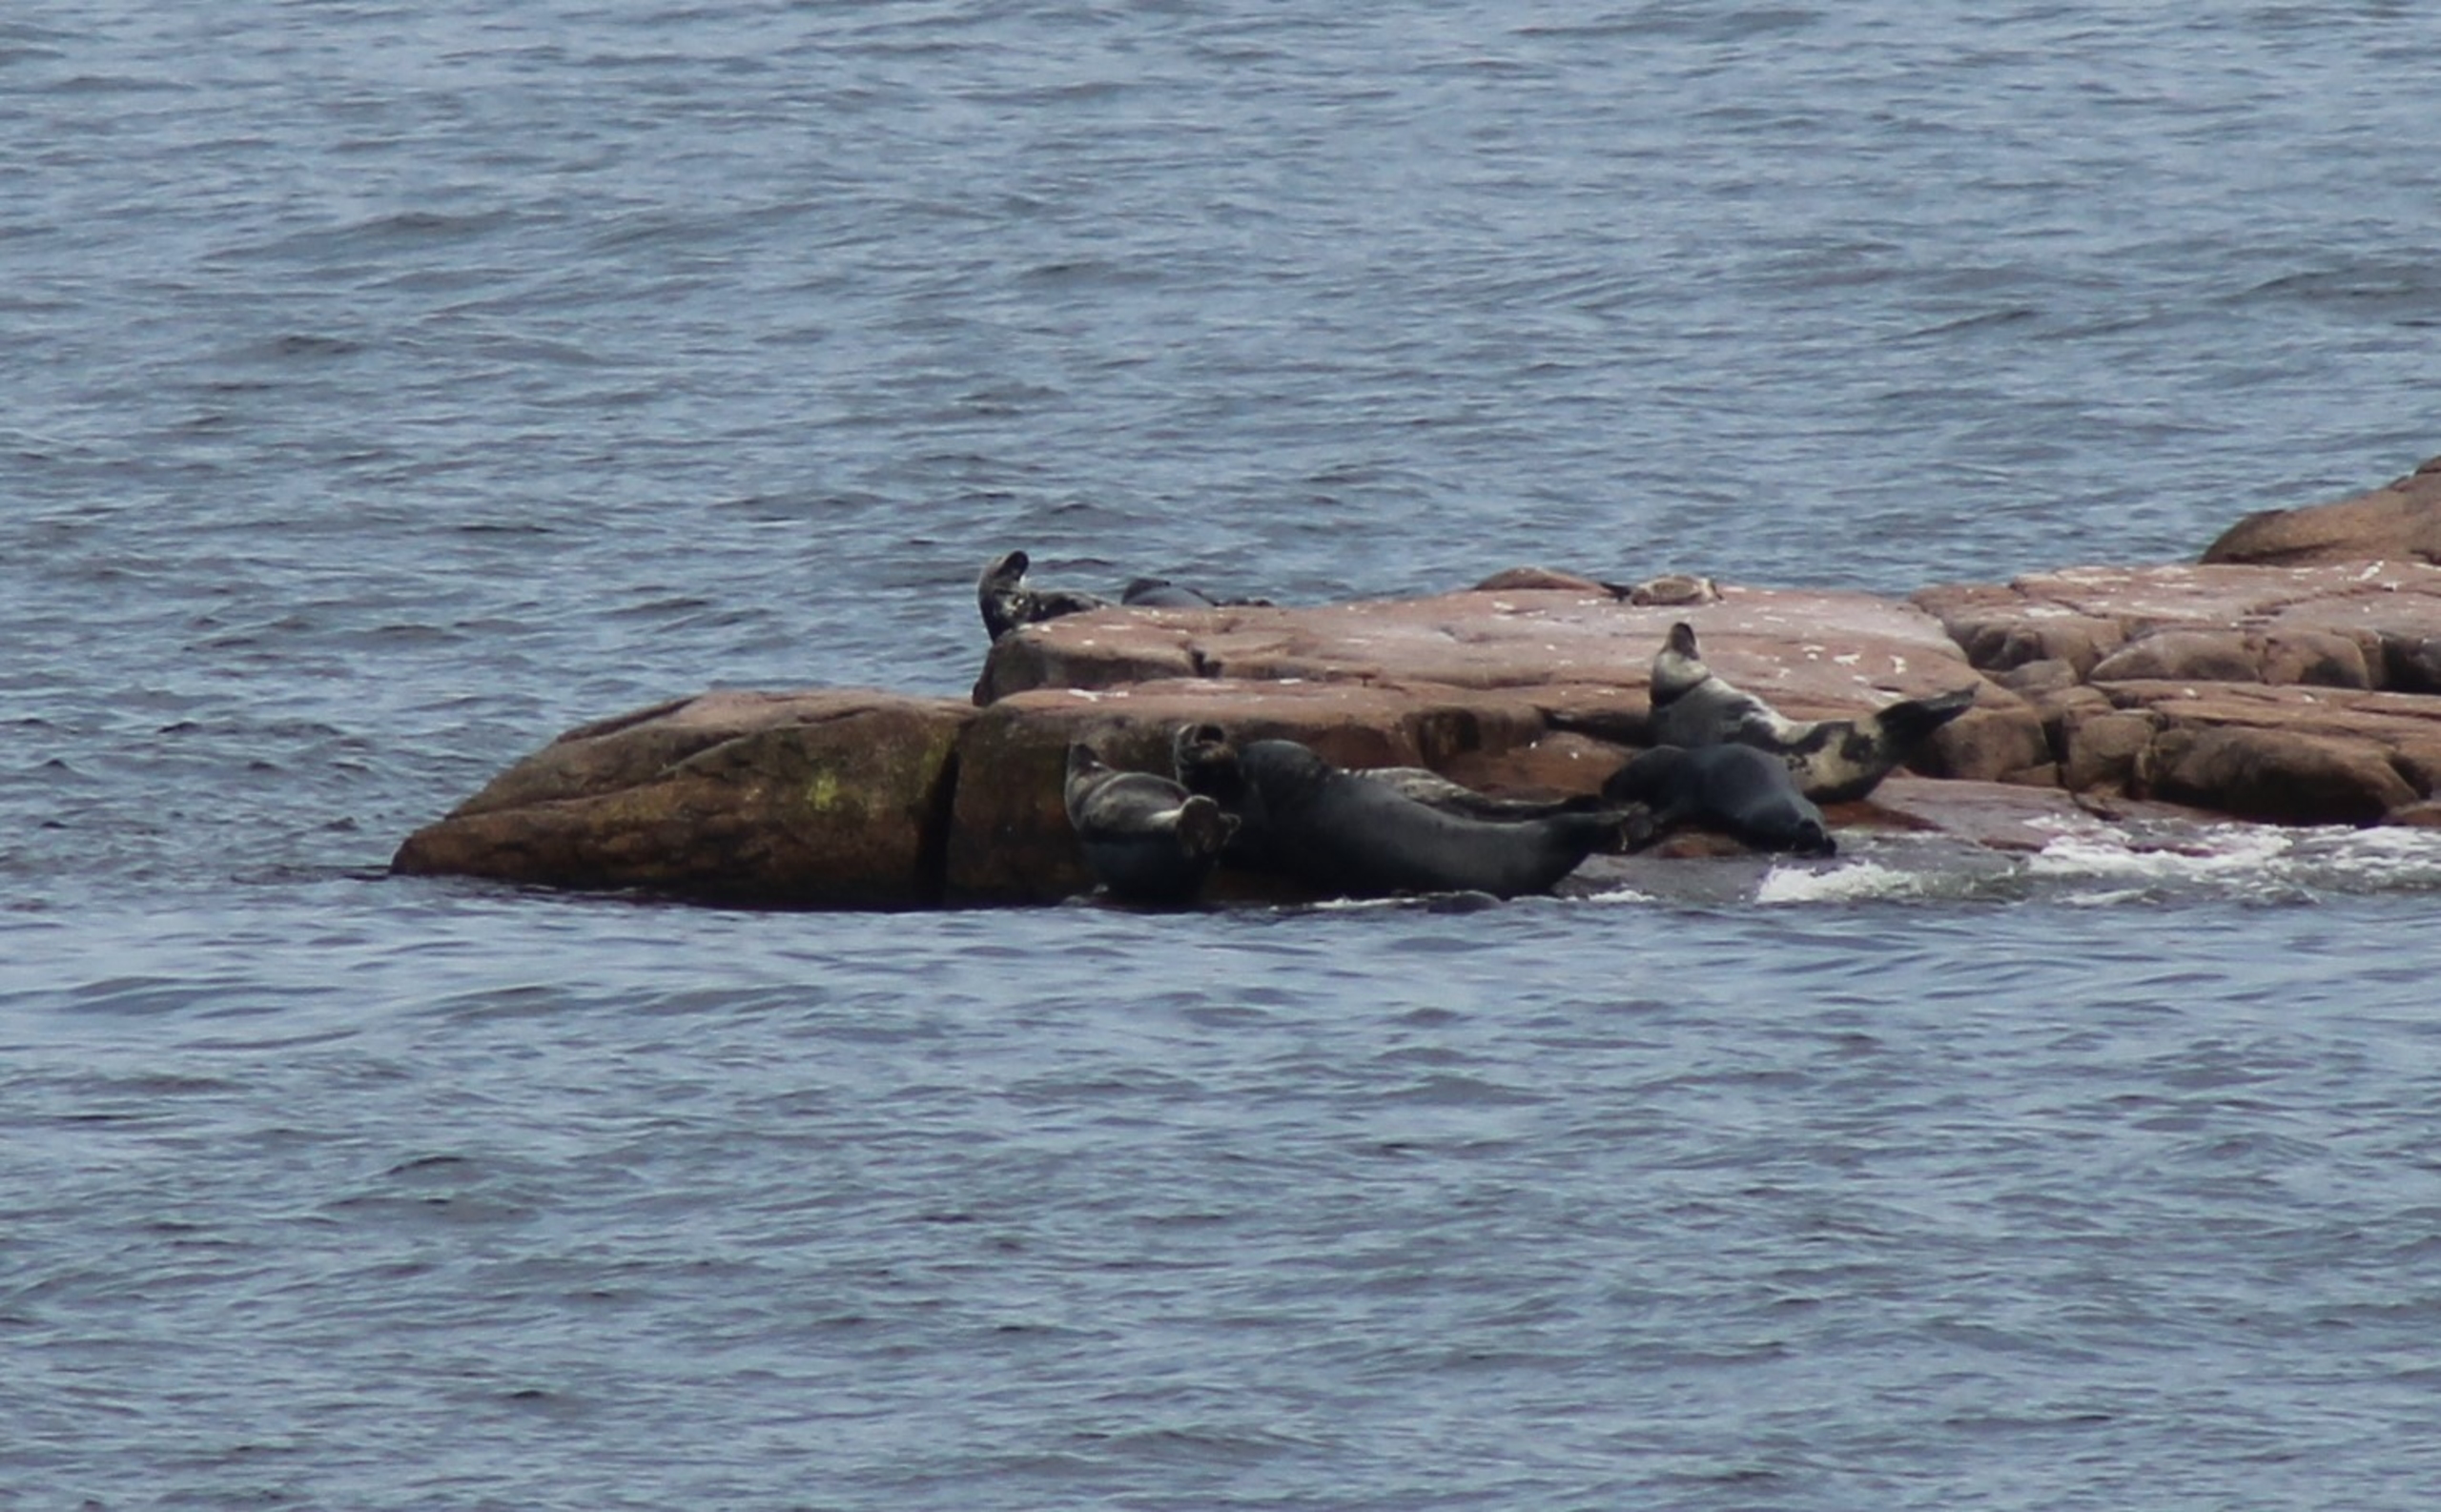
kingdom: Animalia
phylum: Chordata
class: Mammalia
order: Carnivora
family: Phocidae
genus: Halichoerus
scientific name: Halichoerus grypus
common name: Gråsæl
